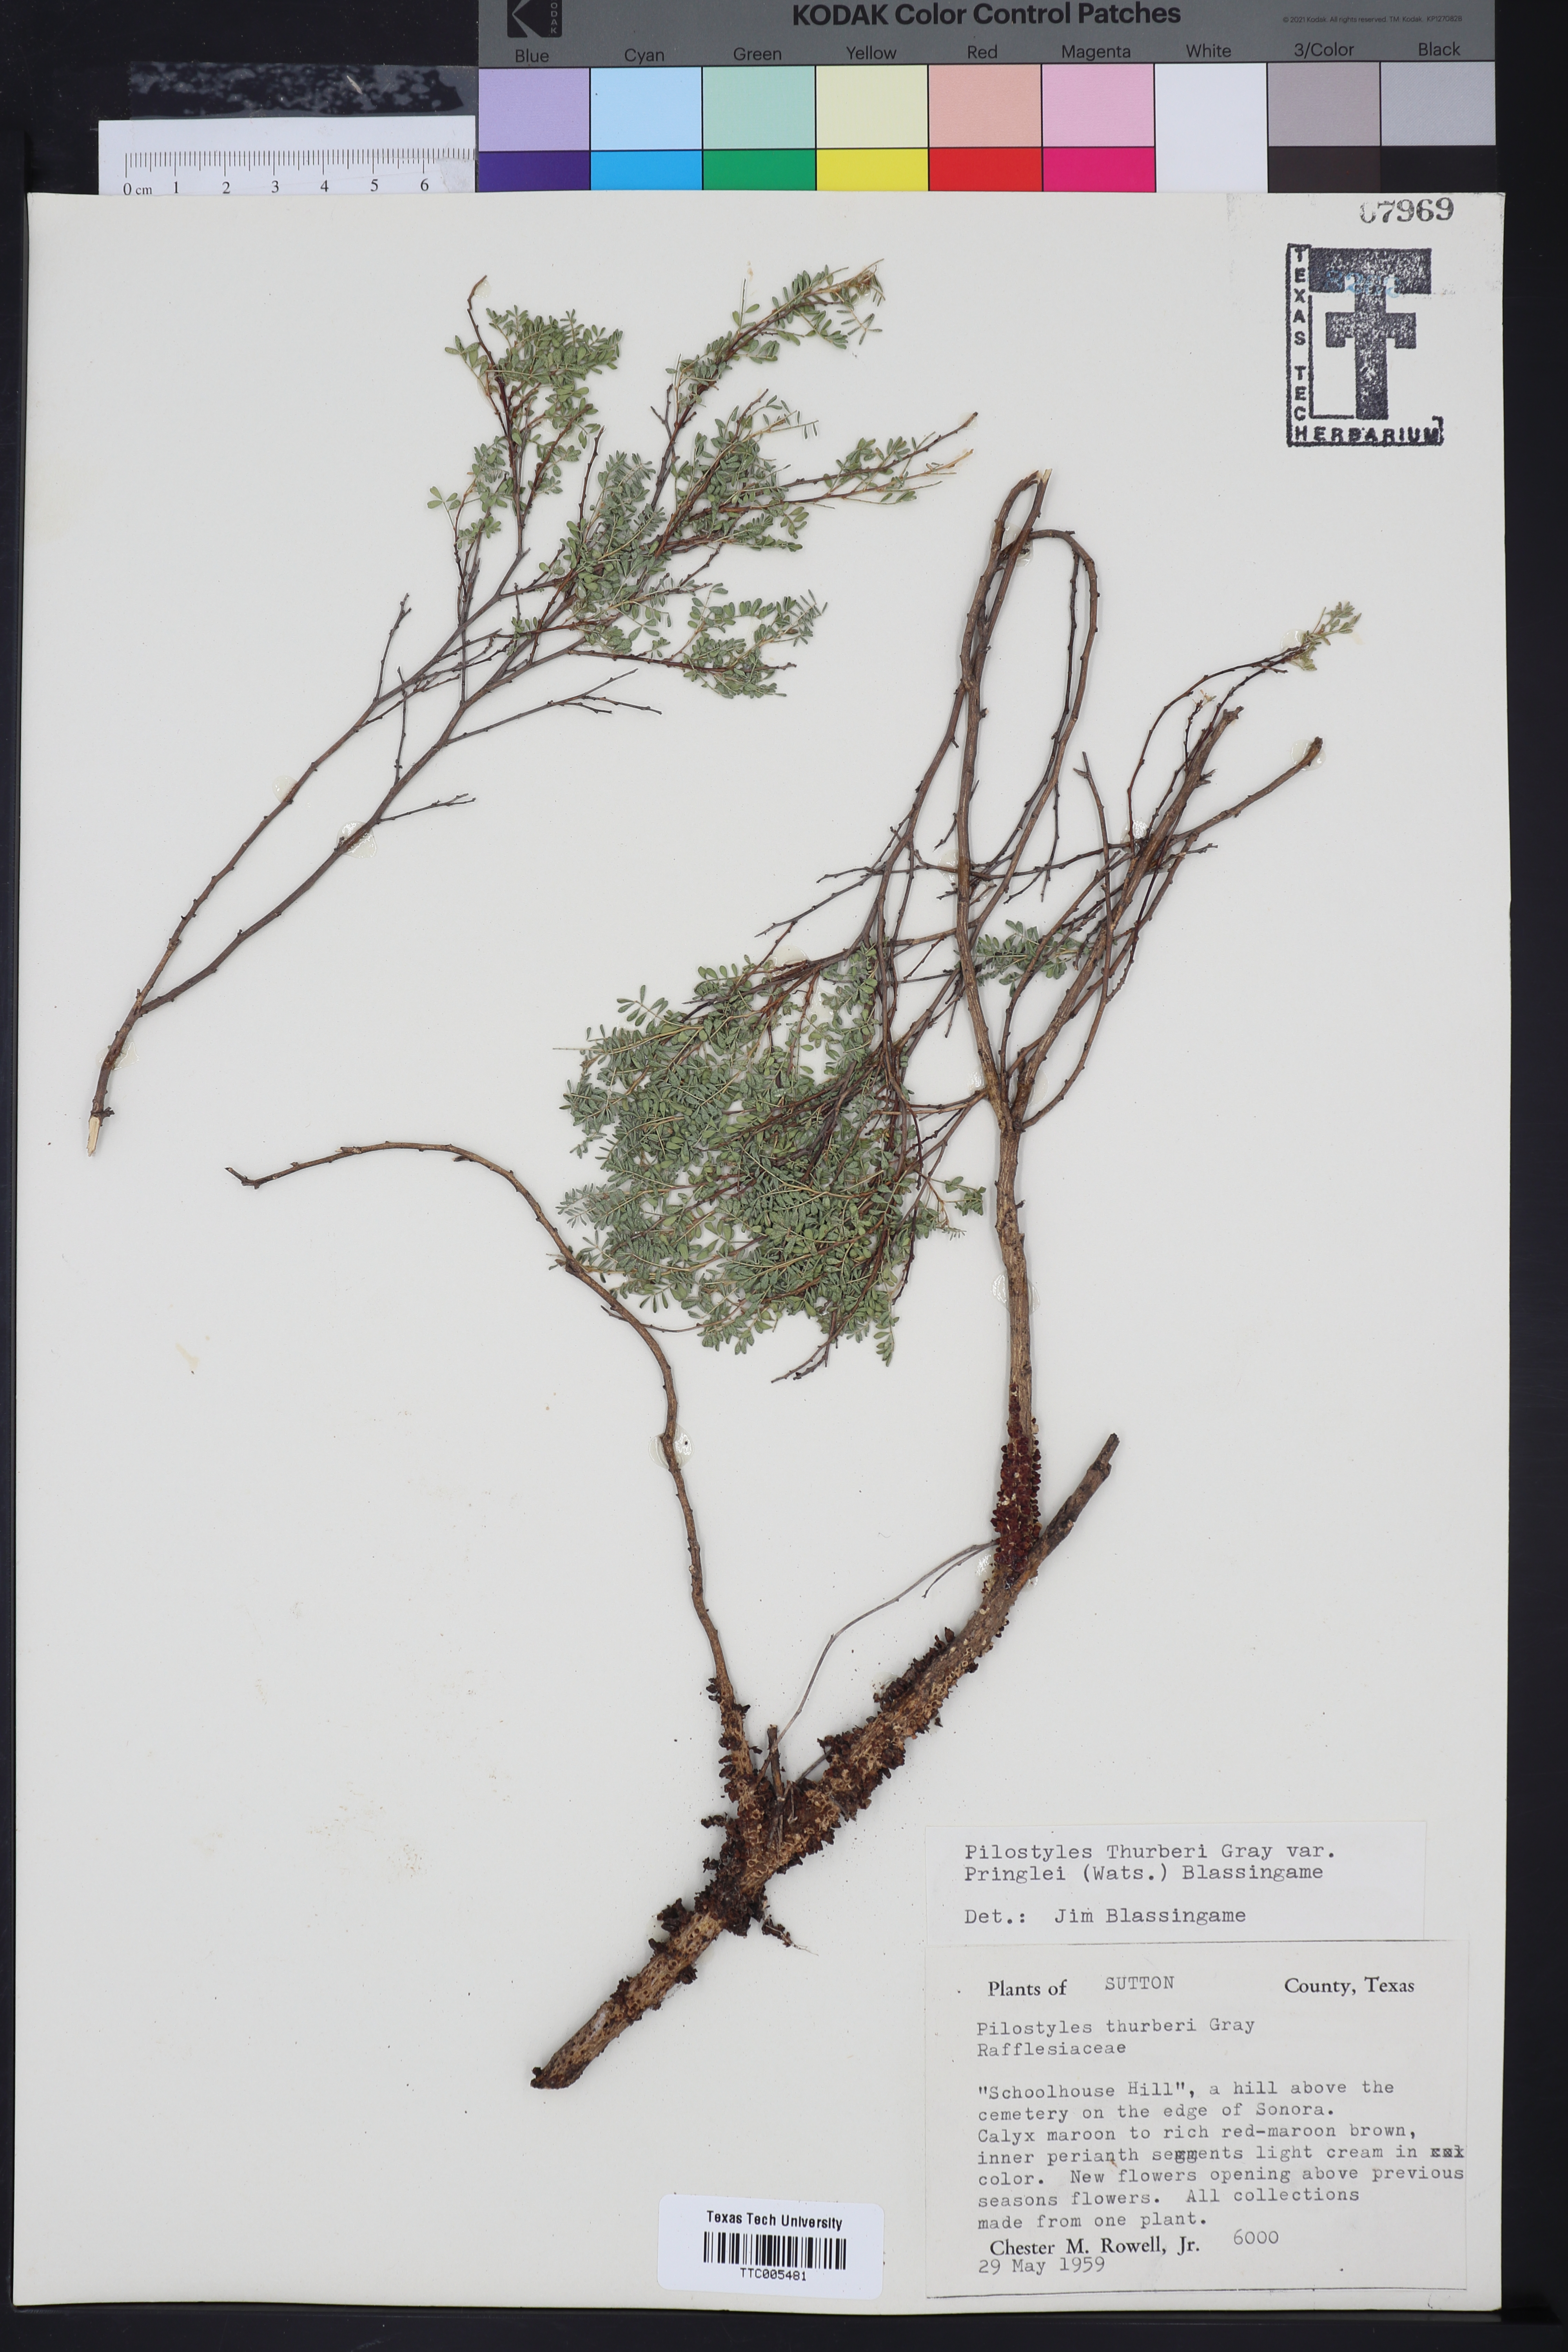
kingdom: Plantae
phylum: Tracheophyta
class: Magnoliopsida
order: Cucurbitales
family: Apodanthaceae
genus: Pilostyles
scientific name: Pilostyles thurberi
